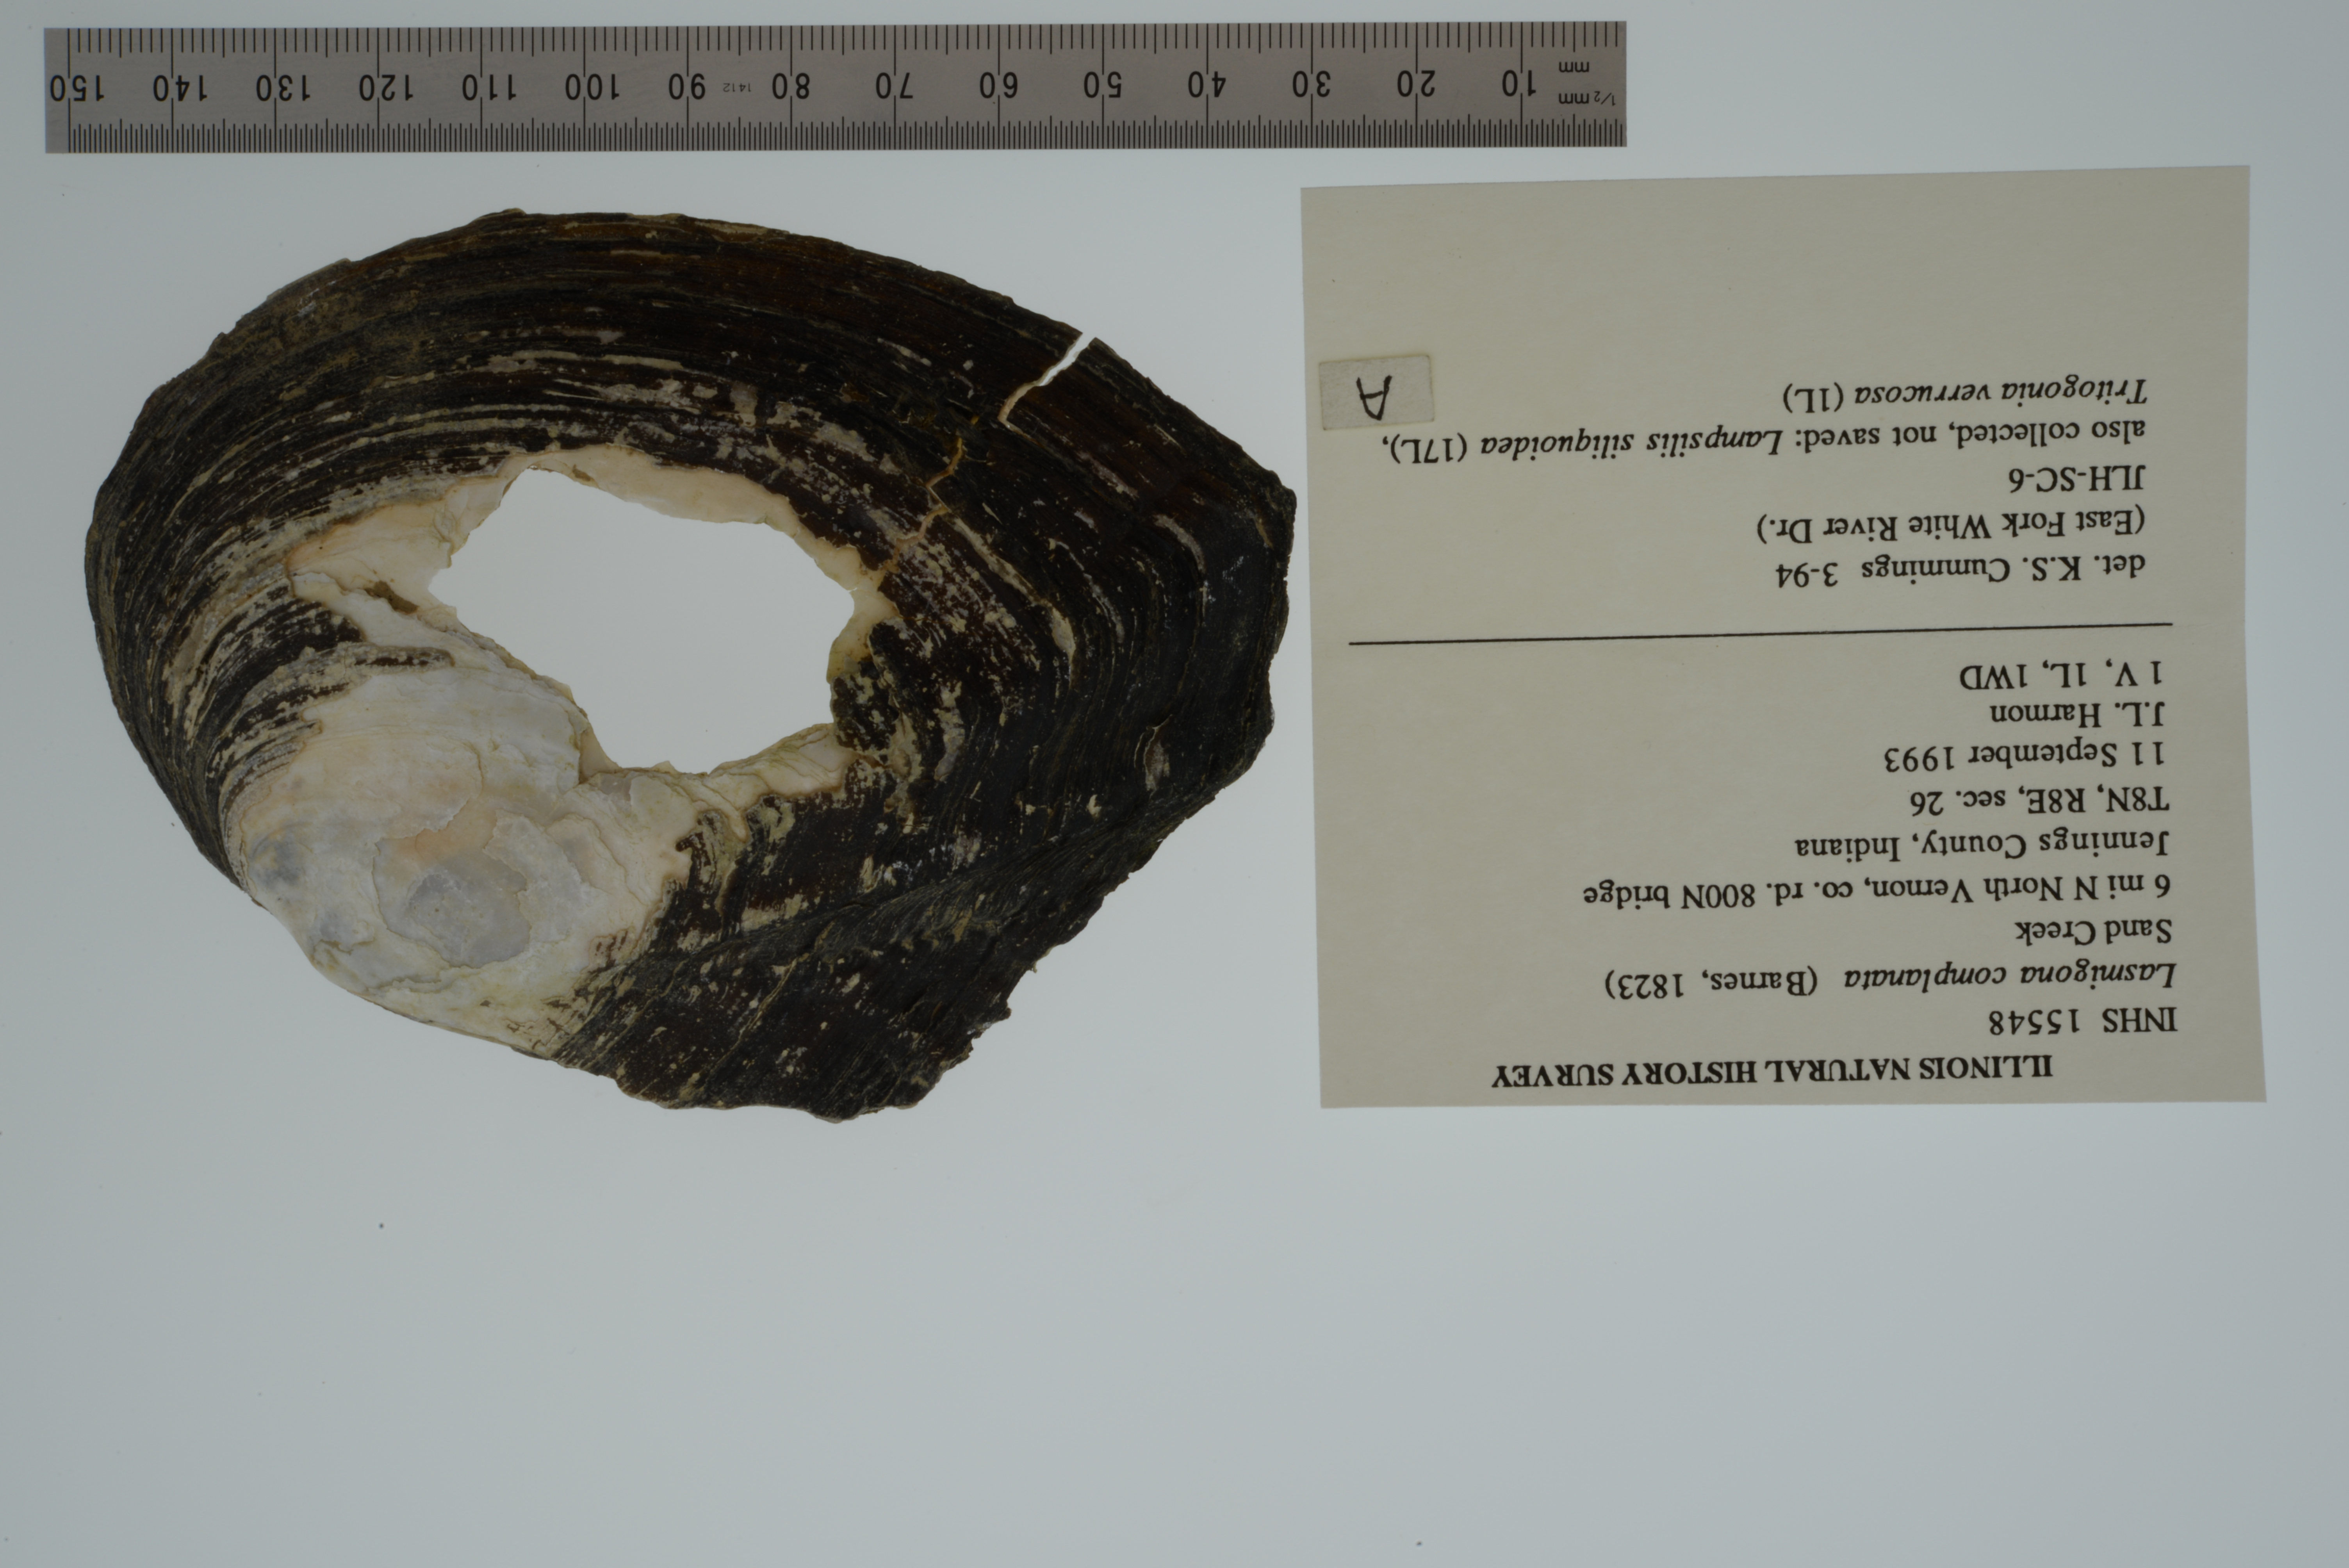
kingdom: Animalia
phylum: Mollusca
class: Bivalvia
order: Unionida
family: Unionidae
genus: Lasmigona
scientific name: Lasmigona complanata
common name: White heelsplitter
